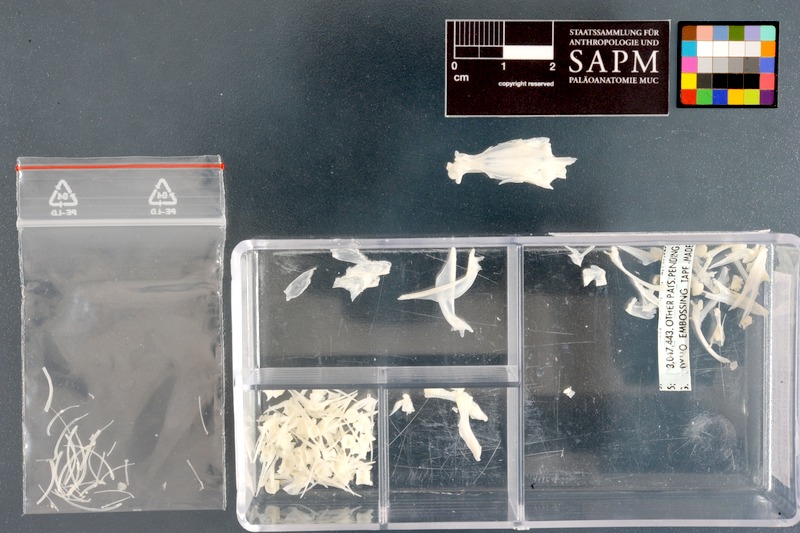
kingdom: Animalia
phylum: Chordata
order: Gadiformes
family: Lotidae
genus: Gaidropsarus
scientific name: Gaidropsarus capensis
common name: Cape rockling
